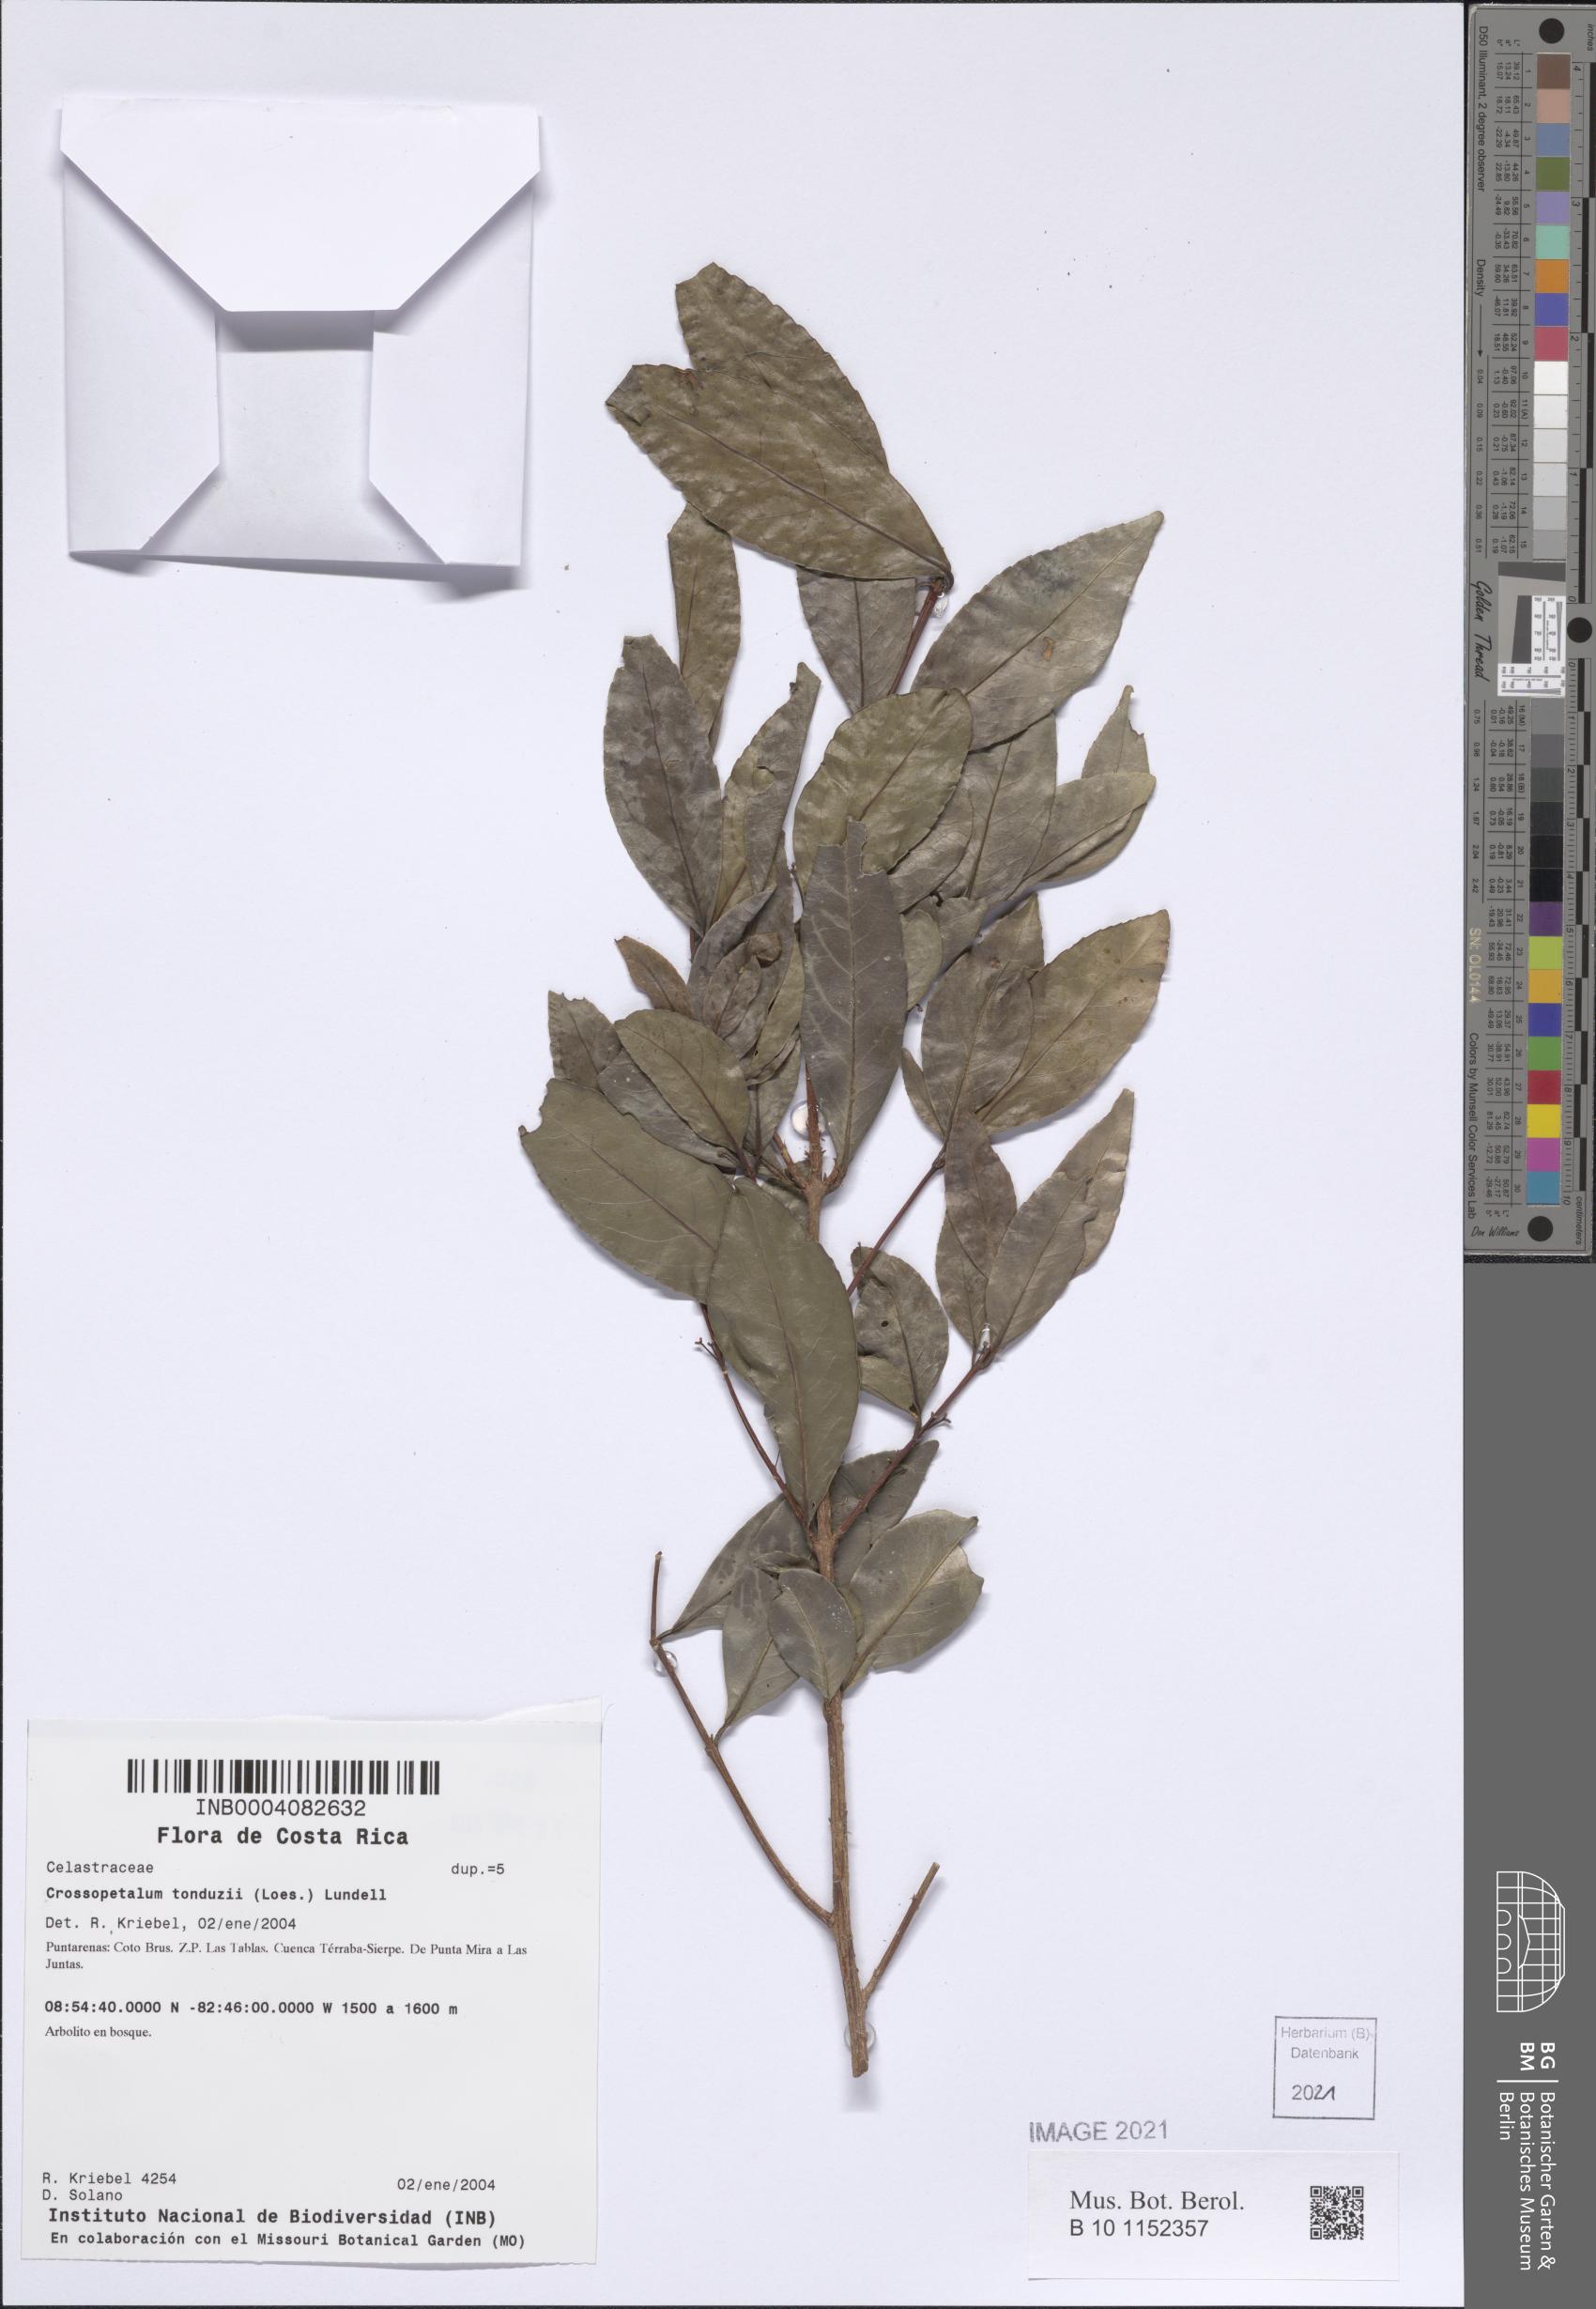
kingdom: Plantae
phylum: Tracheophyta
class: Magnoliopsida
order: Celastrales
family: Celastraceae
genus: Gyminda
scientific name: Gyminda tonduzii
